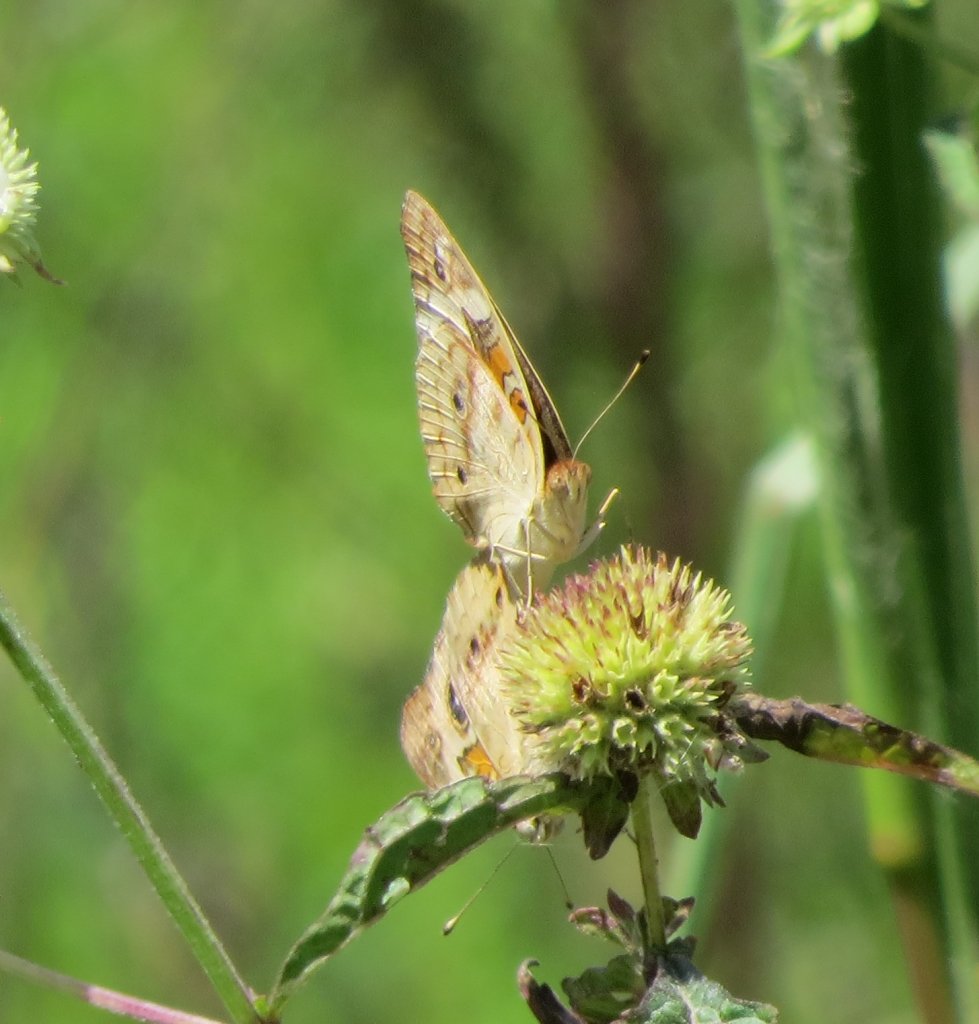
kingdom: Animalia
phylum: Arthropoda
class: Insecta
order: Lepidoptera
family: Nymphalidae
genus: Junonia
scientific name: Junonia coenia
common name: Common Buckeye
